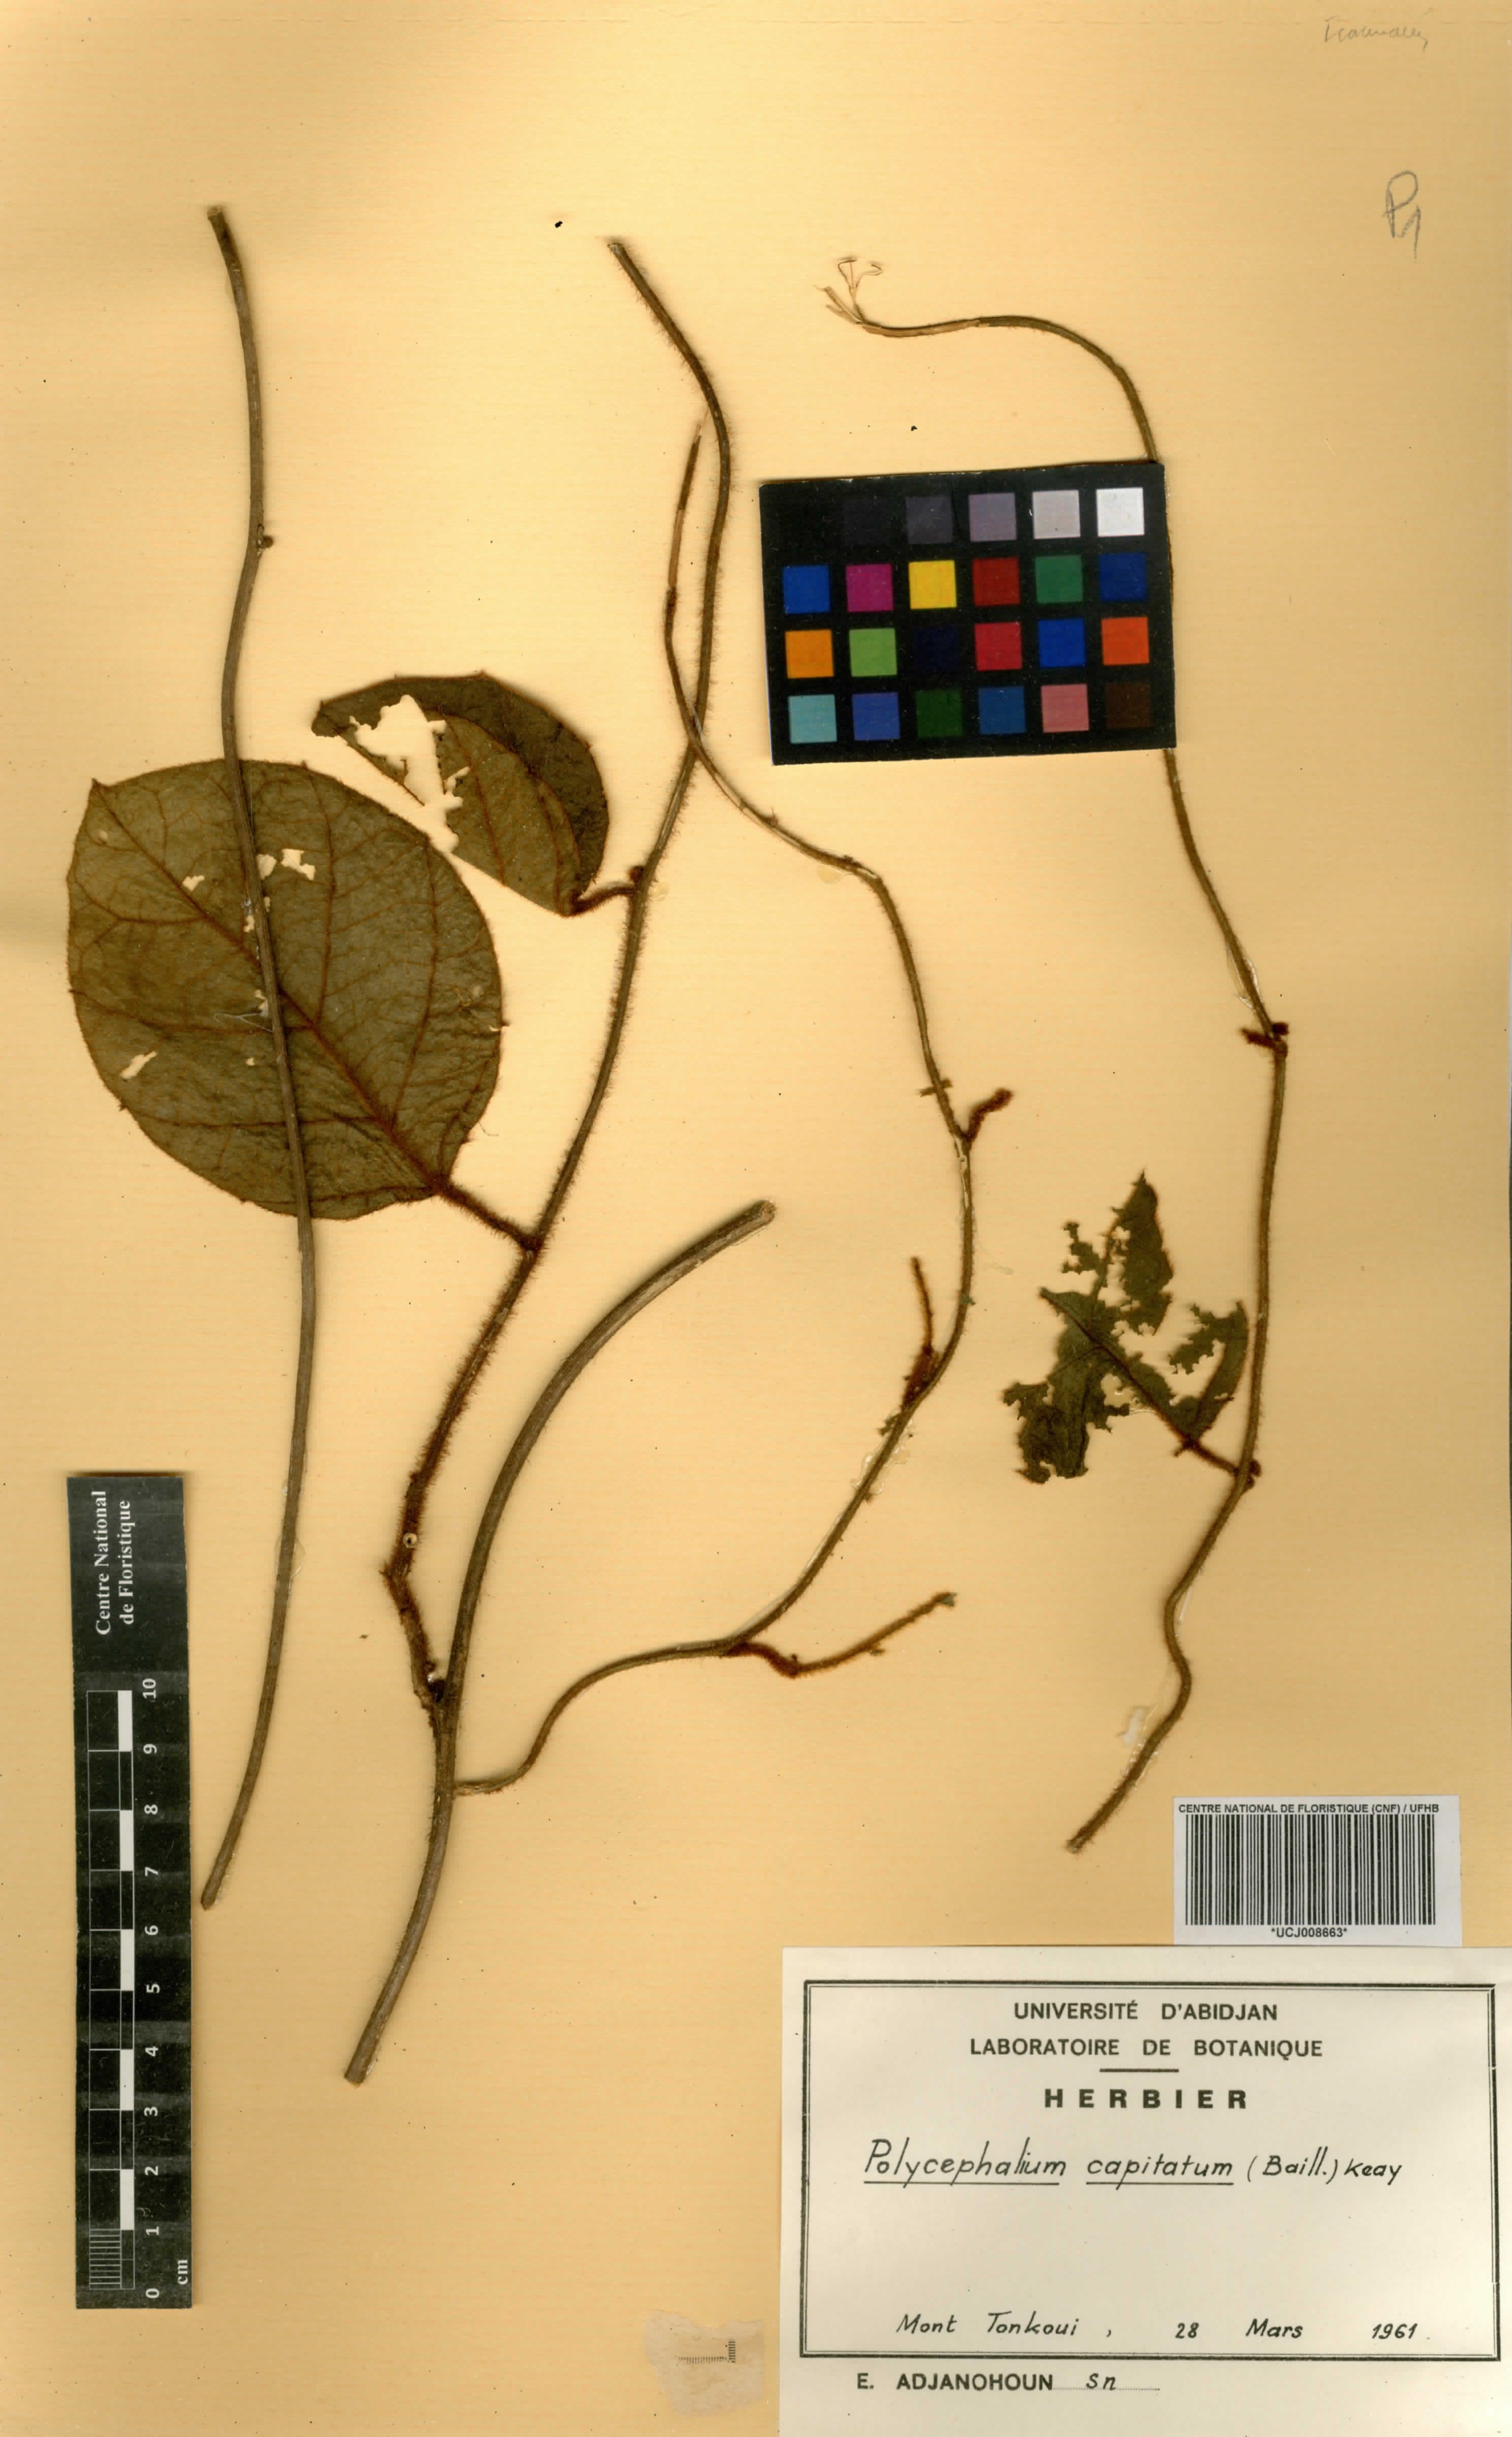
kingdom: Plantae
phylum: Tracheophyta
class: Magnoliopsida
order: Icacinales
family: Icacinaceae
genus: Pyrenacantha
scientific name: Pyrenacantha manchesteriana
